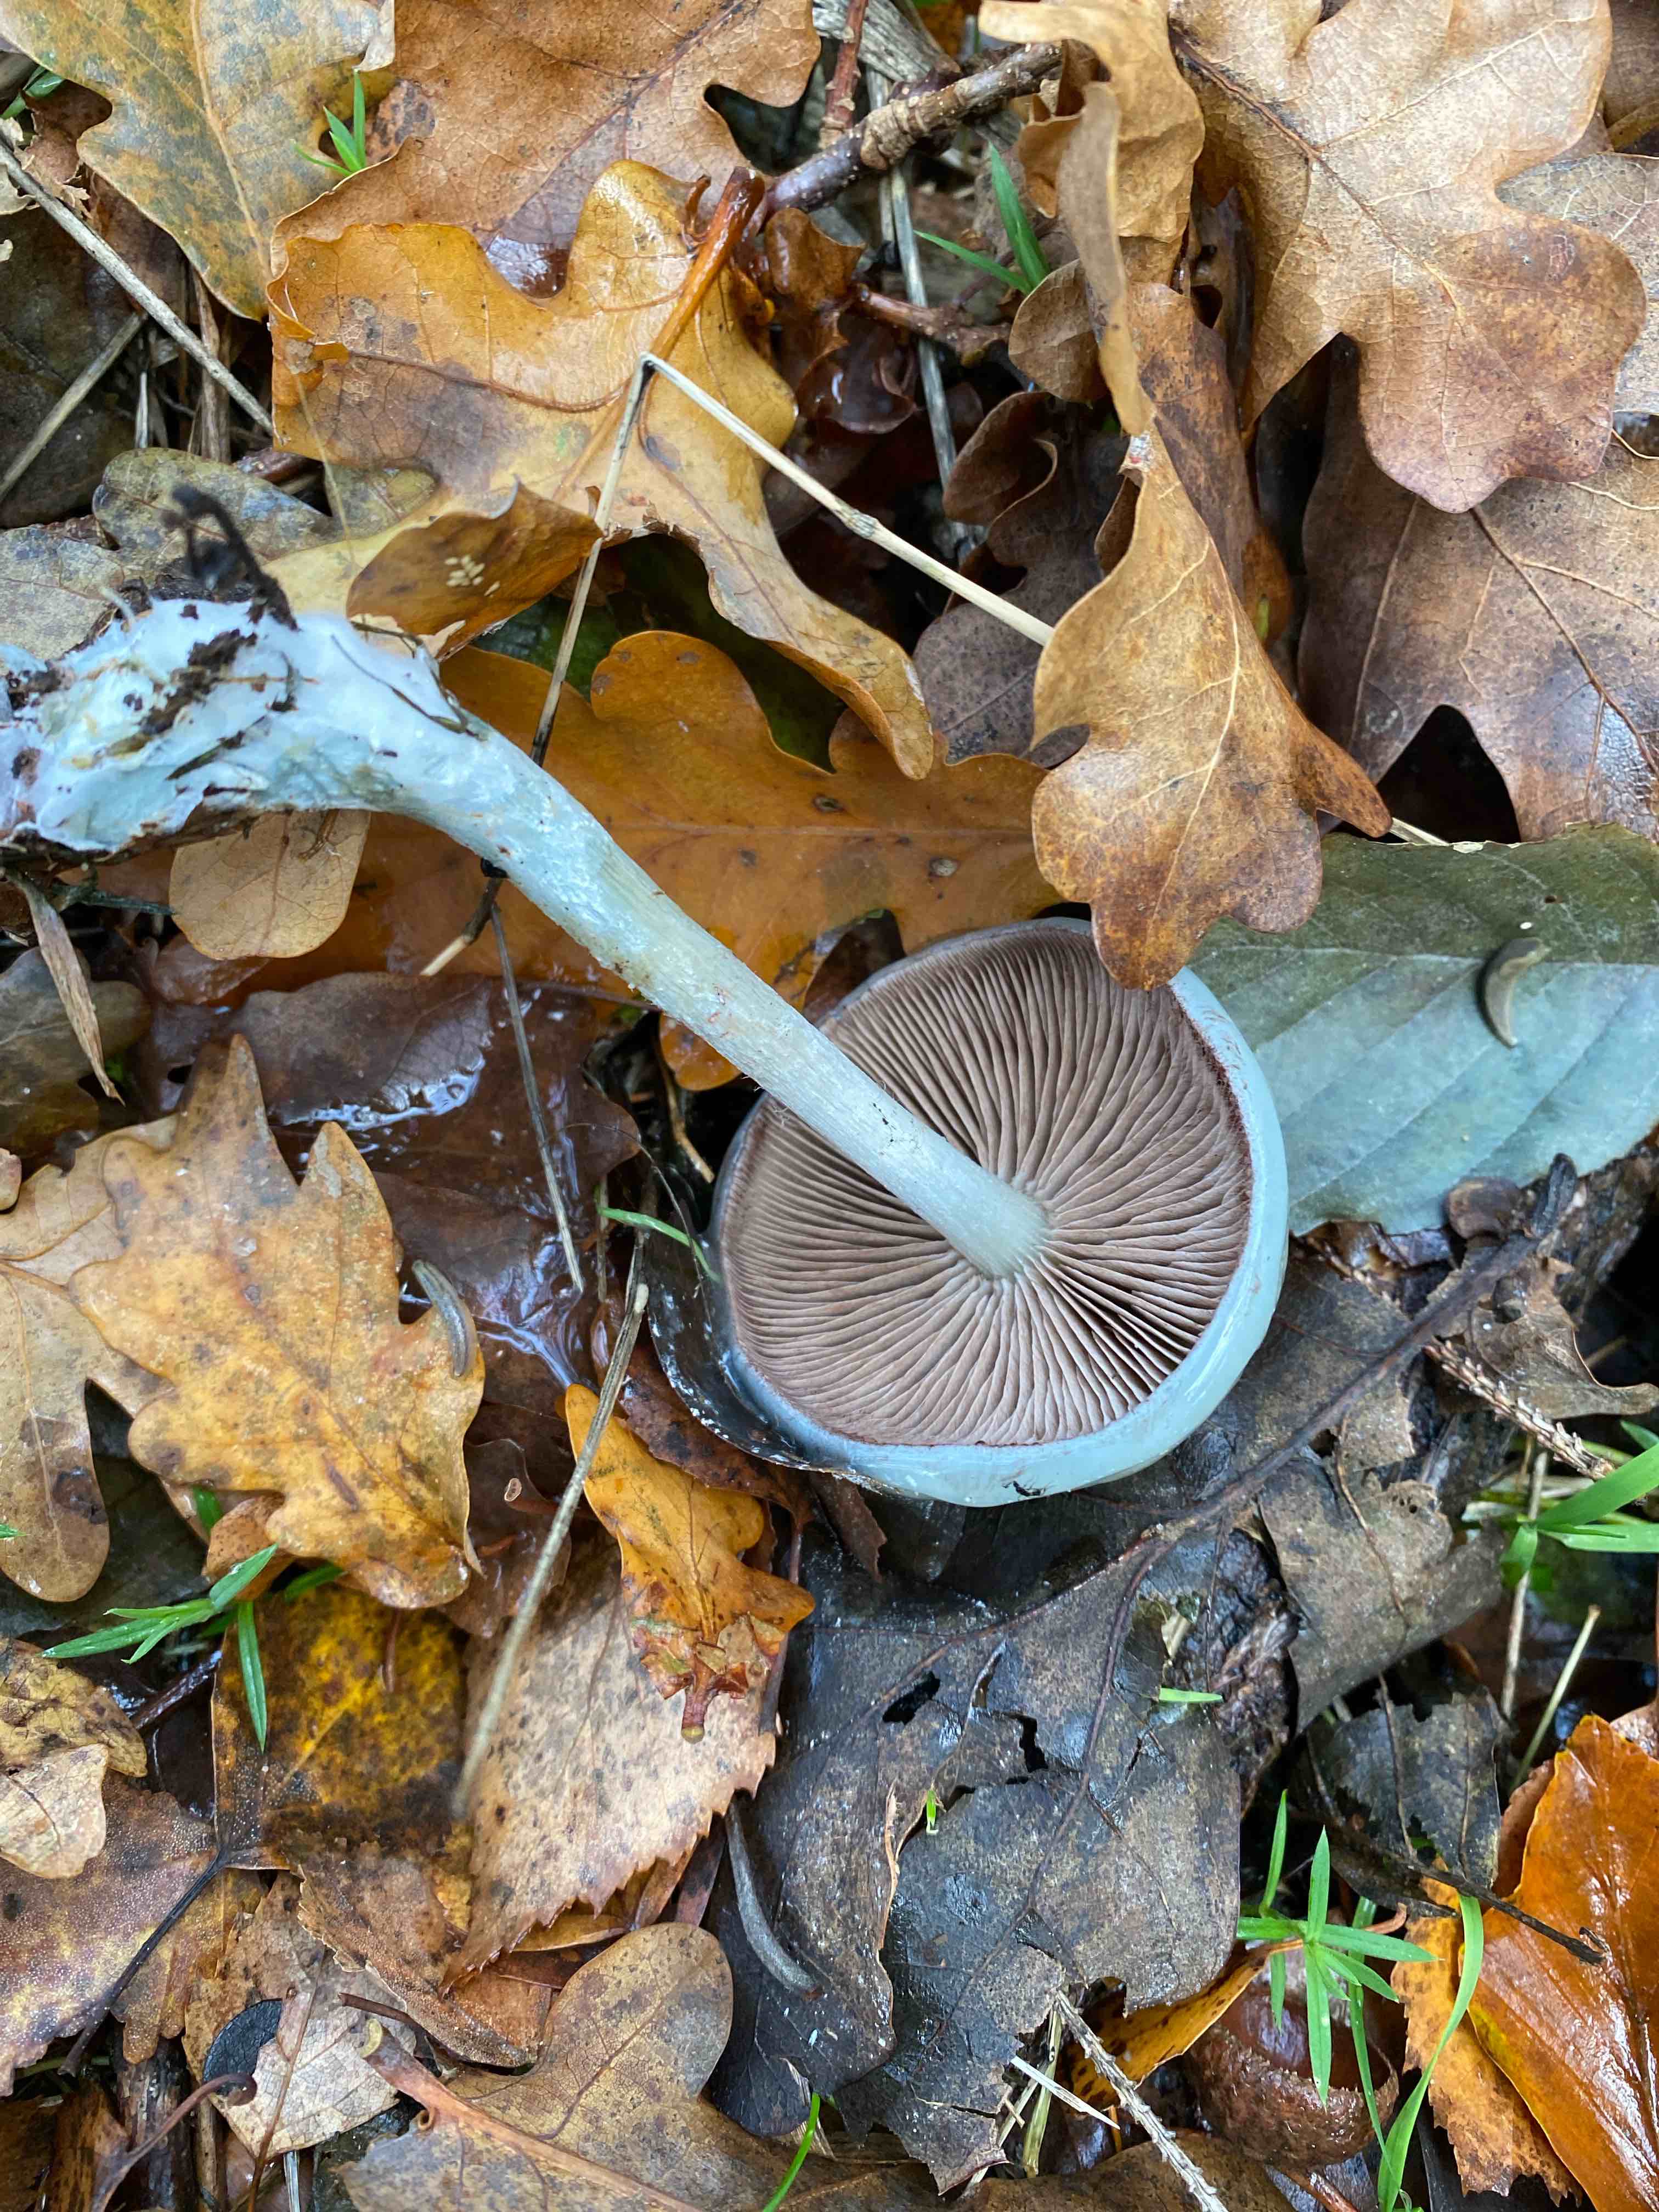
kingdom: Fungi
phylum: Basidiomycota
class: Agaricomycetes
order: Agaricales
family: Strophariaceae
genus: Stropharia
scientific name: Stropharia cyanea
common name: blågrøn bredblad
